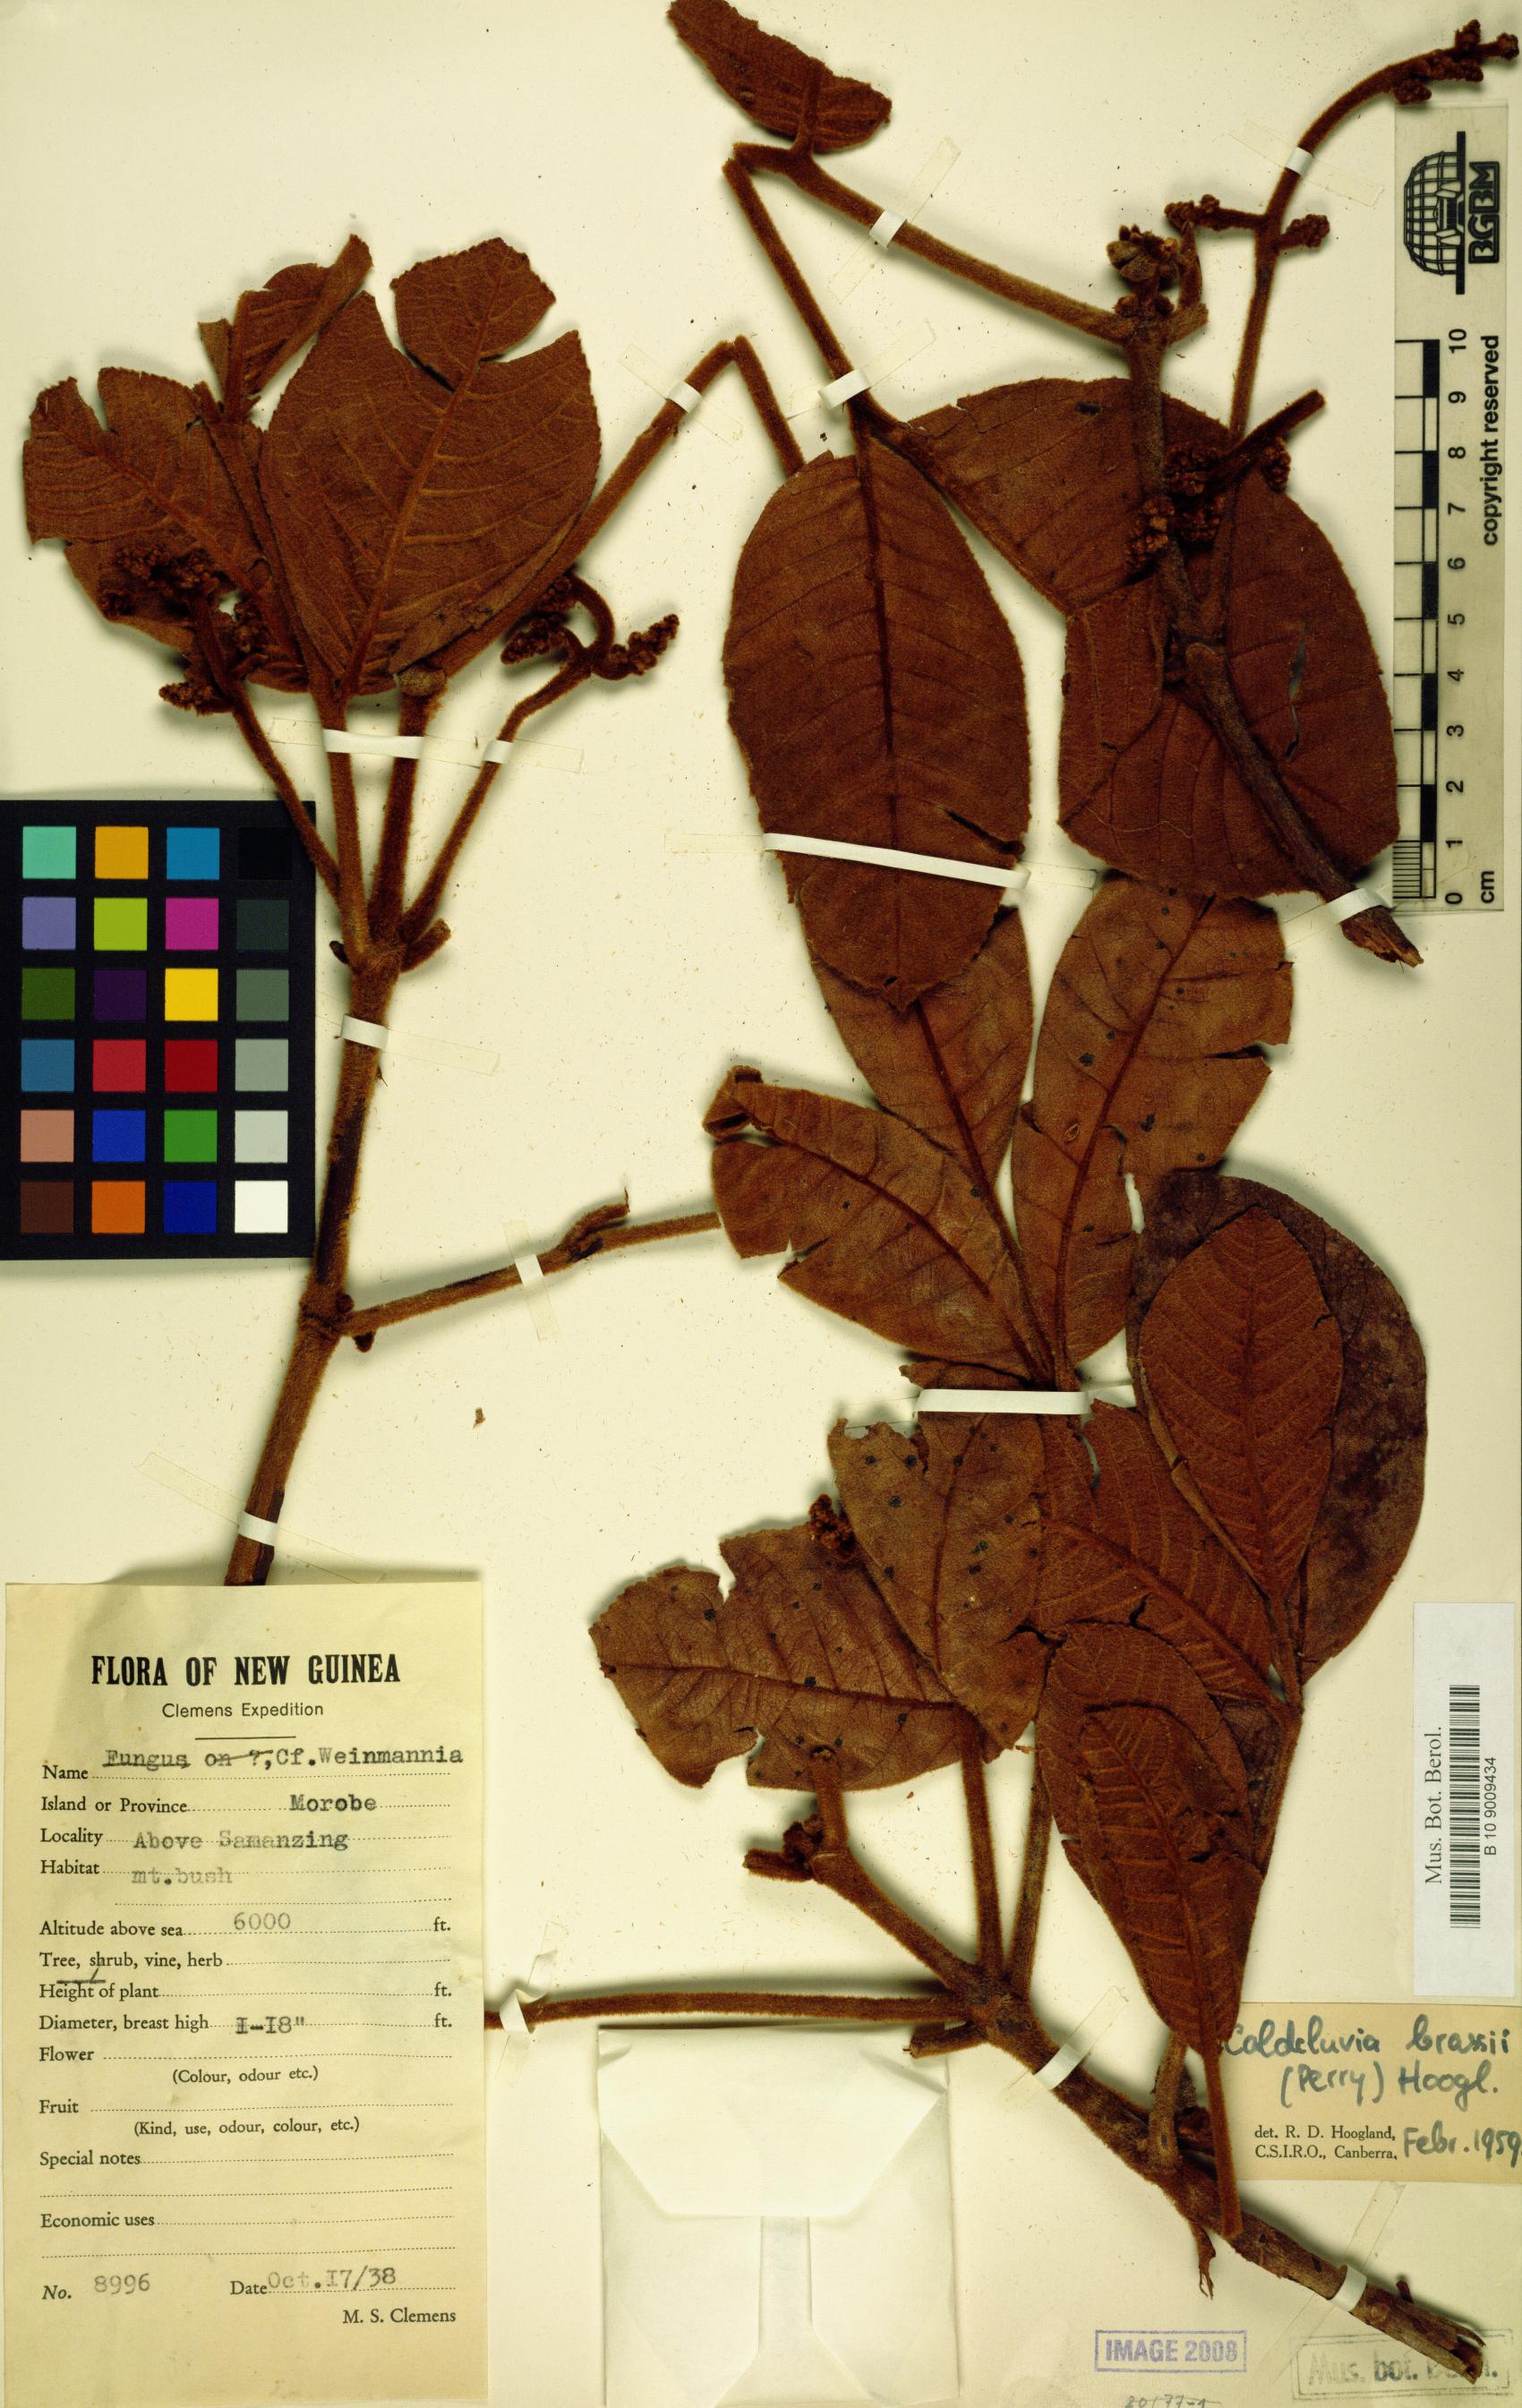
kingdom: Plantae
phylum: Tracheophyta
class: Magnoliopsida
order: Oxalidales
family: Cunoniaceae
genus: Ackama
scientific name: Ackama brassii
